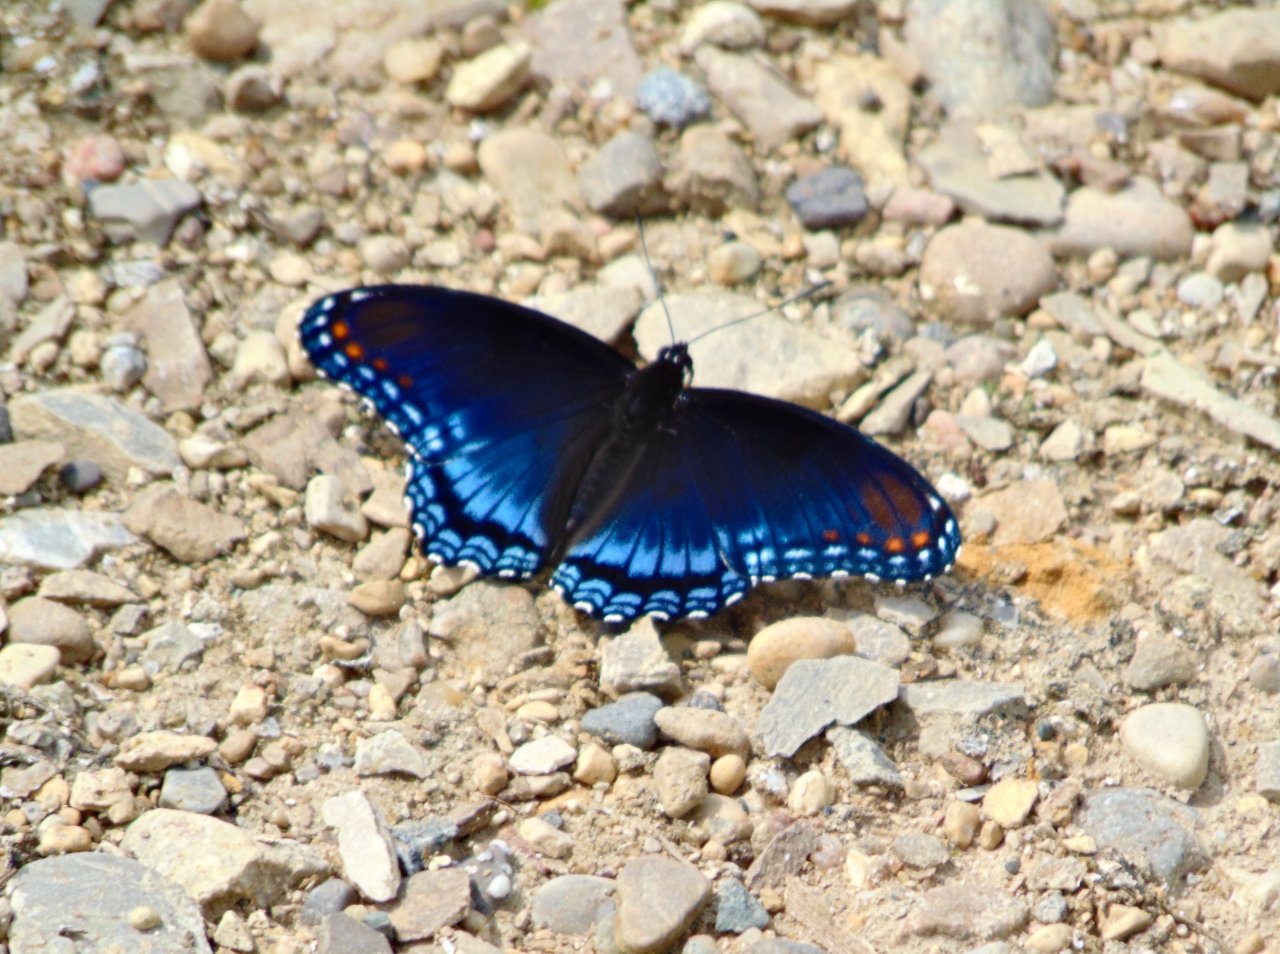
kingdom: Animalia
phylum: Arthropoda
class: Insecta
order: Lepidoptera
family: Nymphalidae
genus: Limenitis
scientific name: Limenitis astyanax
